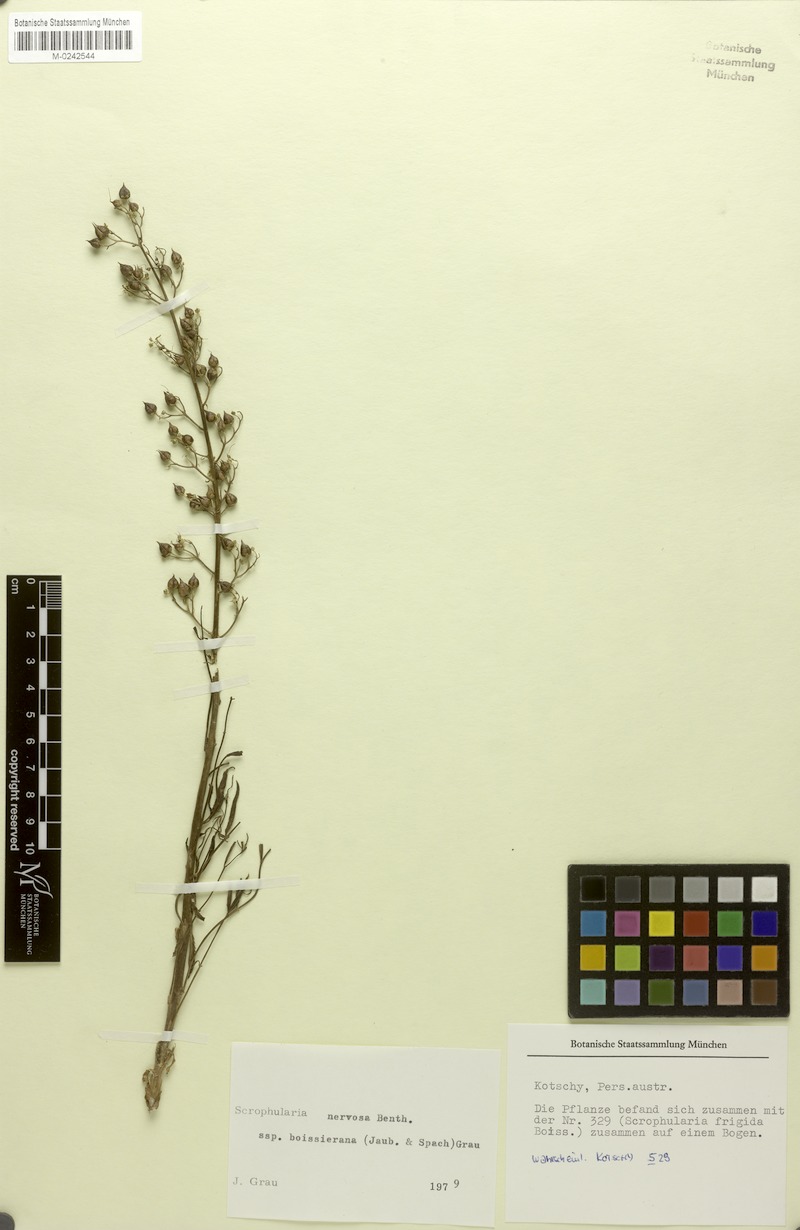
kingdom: Plantae
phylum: Tracheophyta
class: Magnoliopsida
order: Lamiales
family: Scrophulariaceae
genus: Scrophularia
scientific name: Scrophularia nervosa
